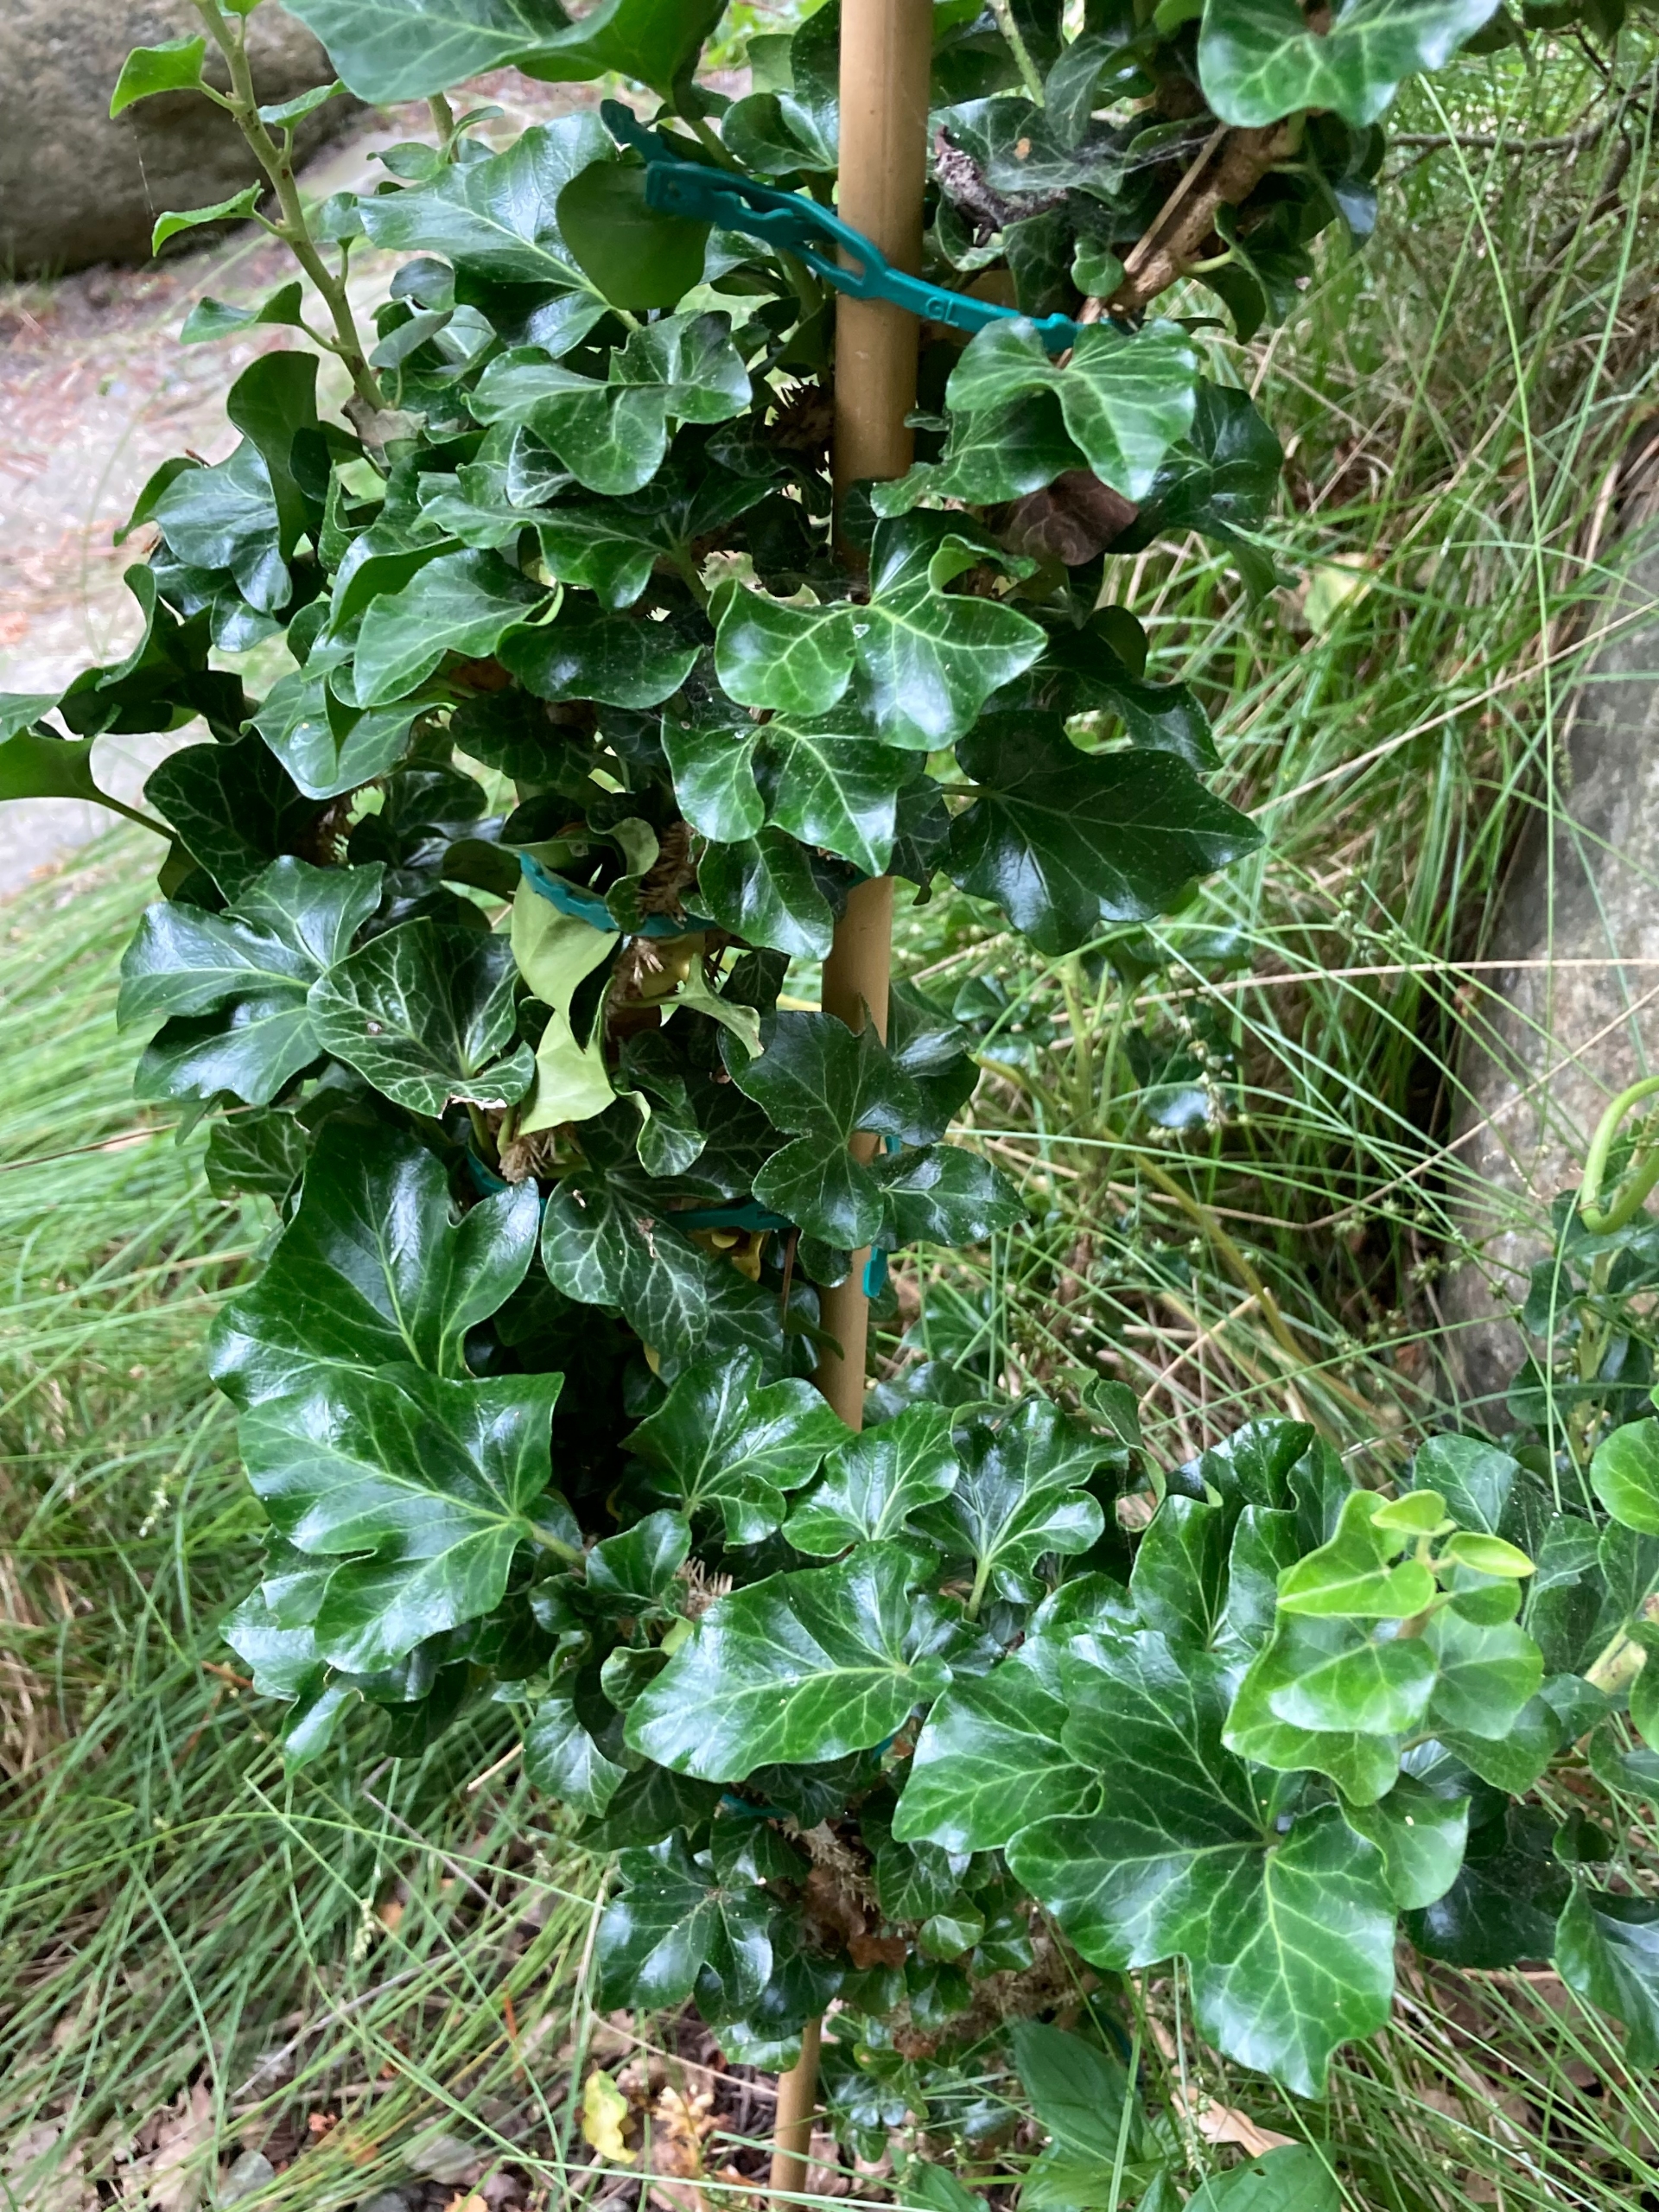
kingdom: Plantae
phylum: Tracheophyta
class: Magnoliopsida
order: Apiales
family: Araliaceae
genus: Hedera
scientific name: Hedera helix
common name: Vedbend
